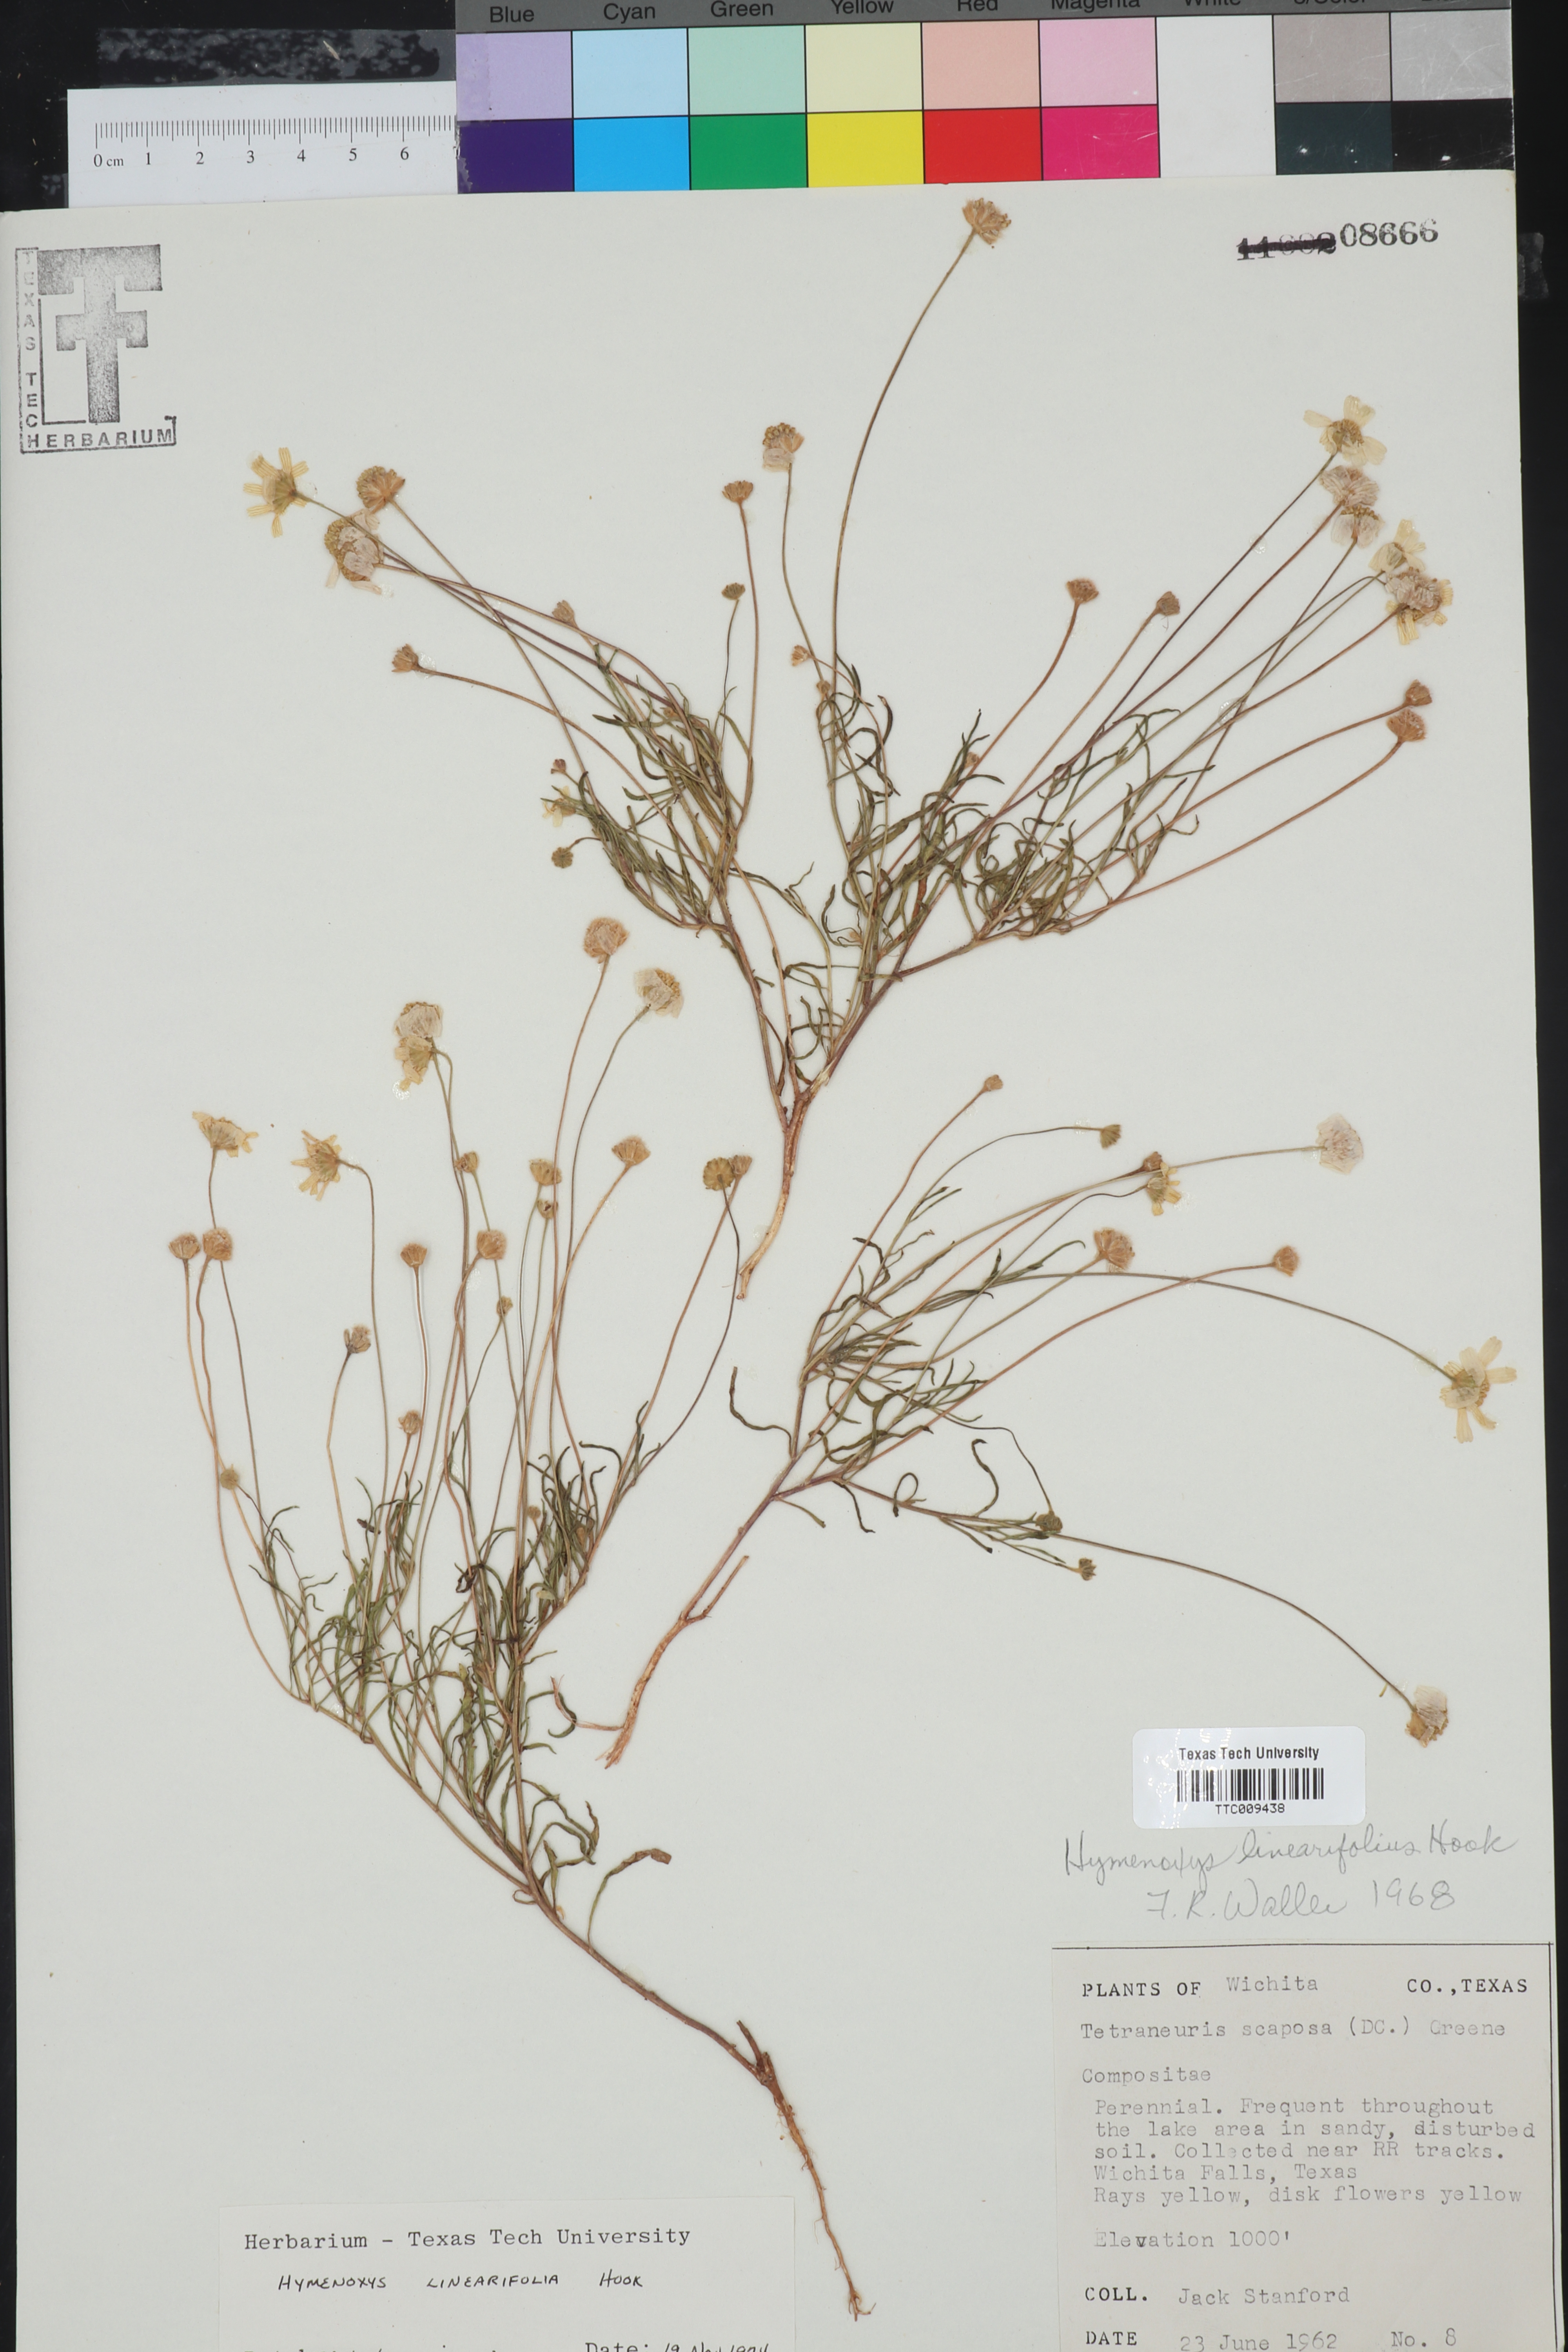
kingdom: Plantae
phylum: Tracheophyta
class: Magnoliopsida
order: Asterales
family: Asteraceae
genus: Tetraneuris
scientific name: Tetraneuris linearifolia
